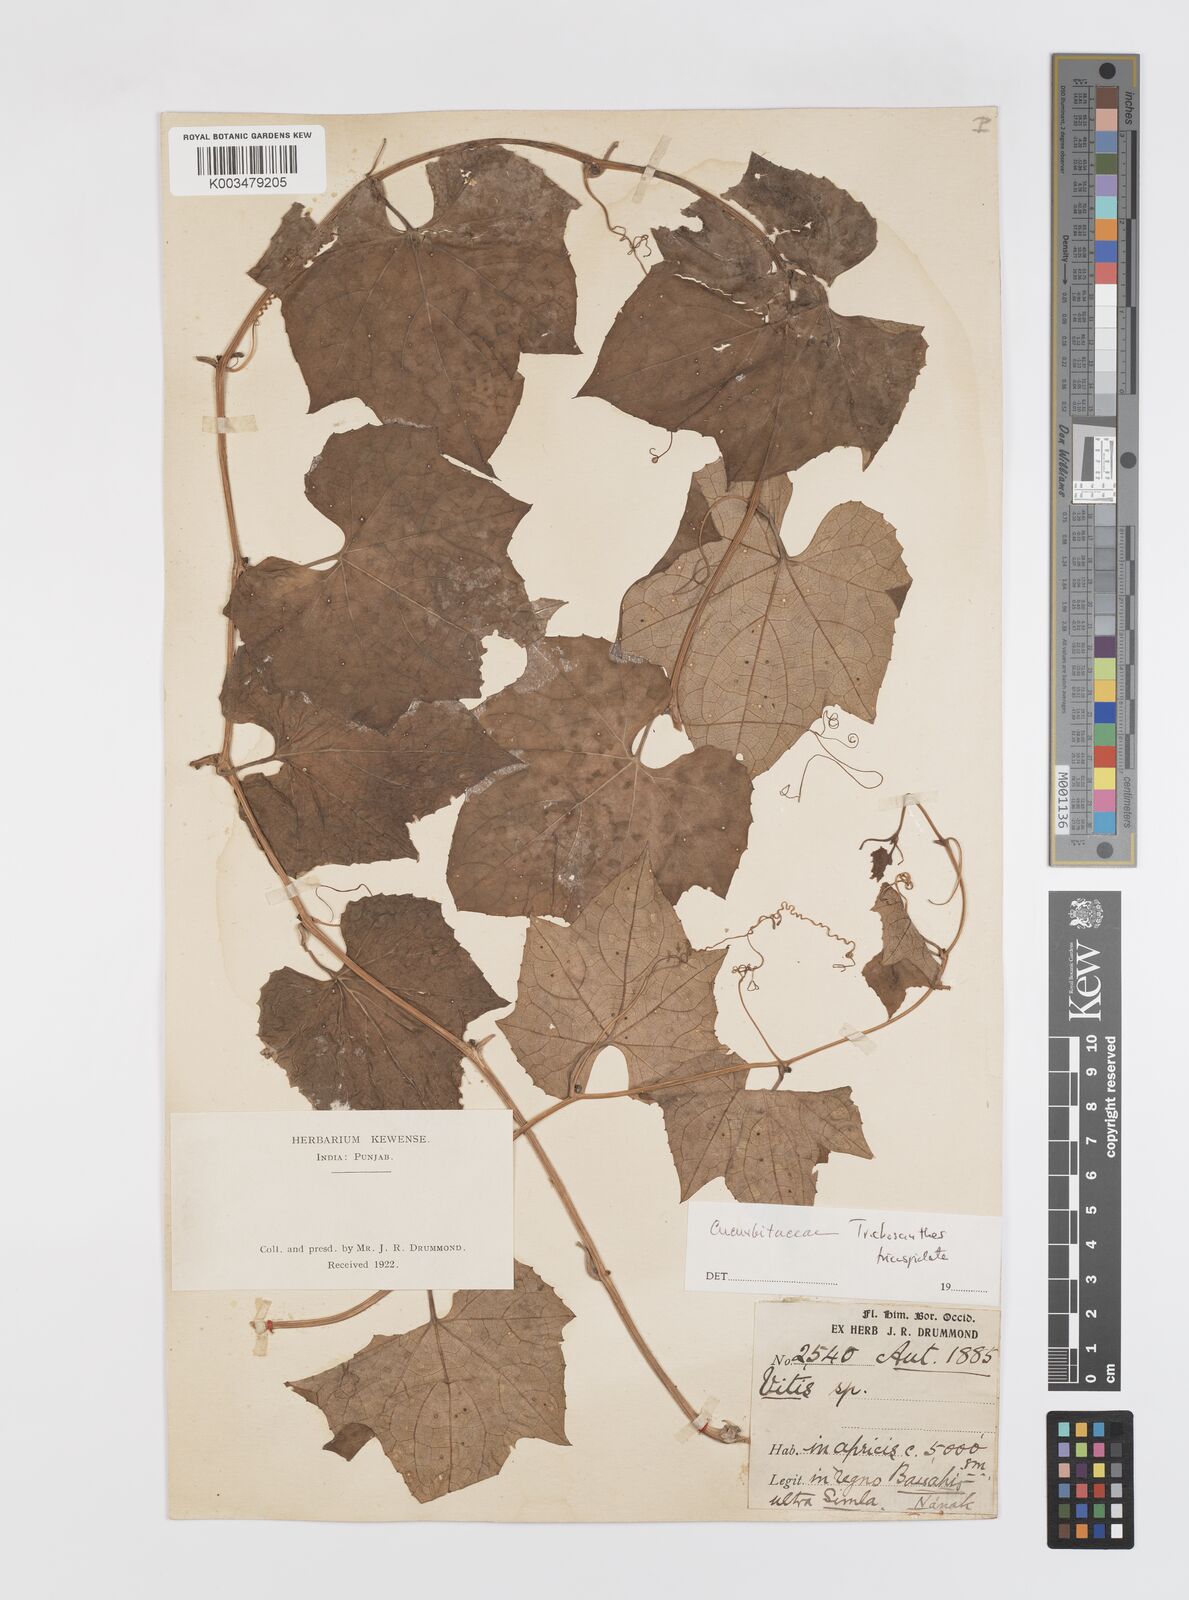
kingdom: Plantae
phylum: Tracheophyta
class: Magnoliopsida
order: Cucurbitales
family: Cucurbitaceae
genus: Trichosanthes
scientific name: Trichosanthes tricuspidata
